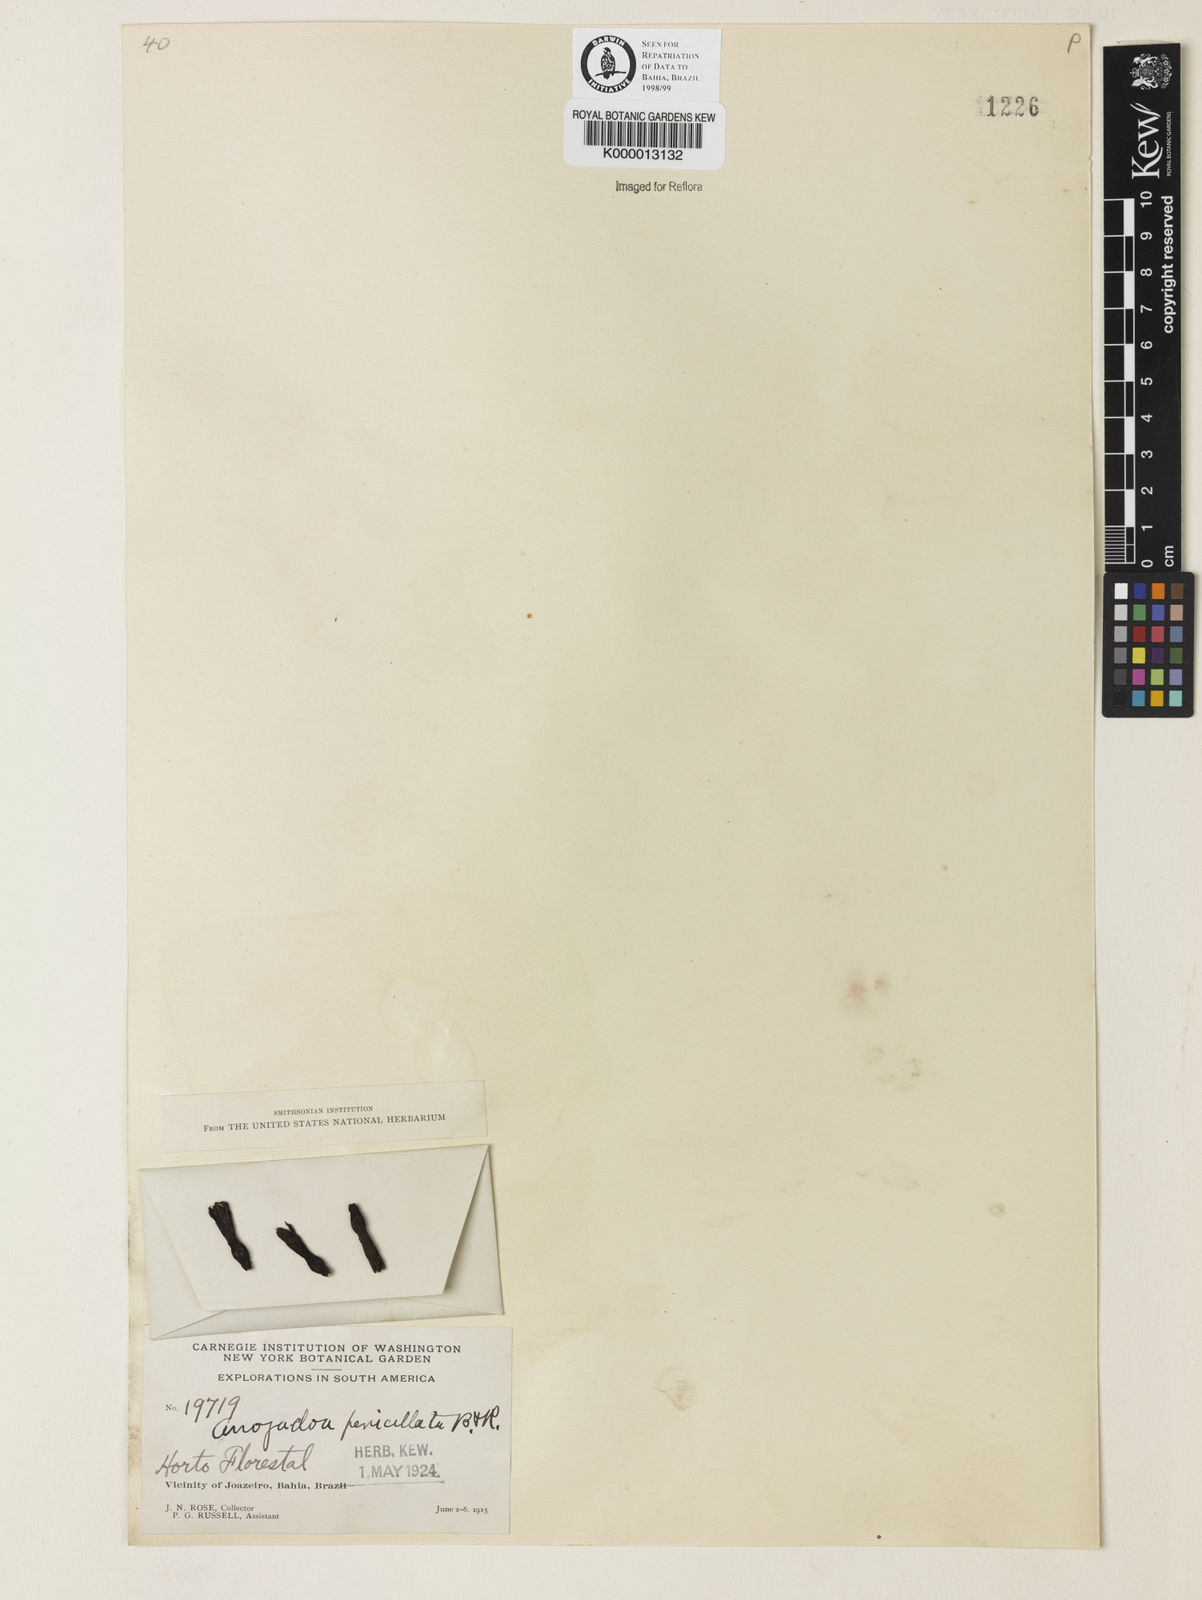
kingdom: Plantae
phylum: Tracheophyta
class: Magnoliopsida
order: Caryophyllales
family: Cactaceae
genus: Arrojadoa
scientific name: Arrojadoa penicillata
